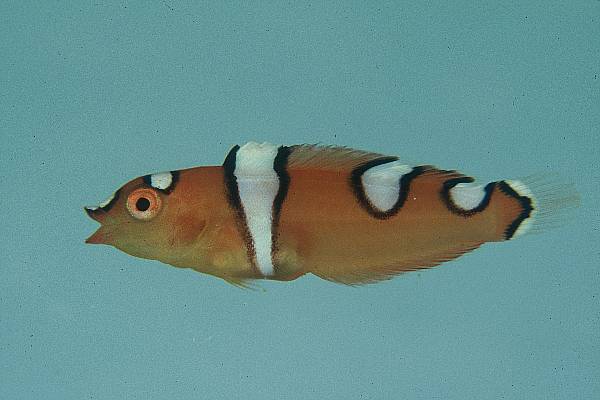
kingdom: Animalia
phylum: Chordata
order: Perciformes
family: Labridae
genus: Coris
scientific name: Coris cuvieri
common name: African coris
